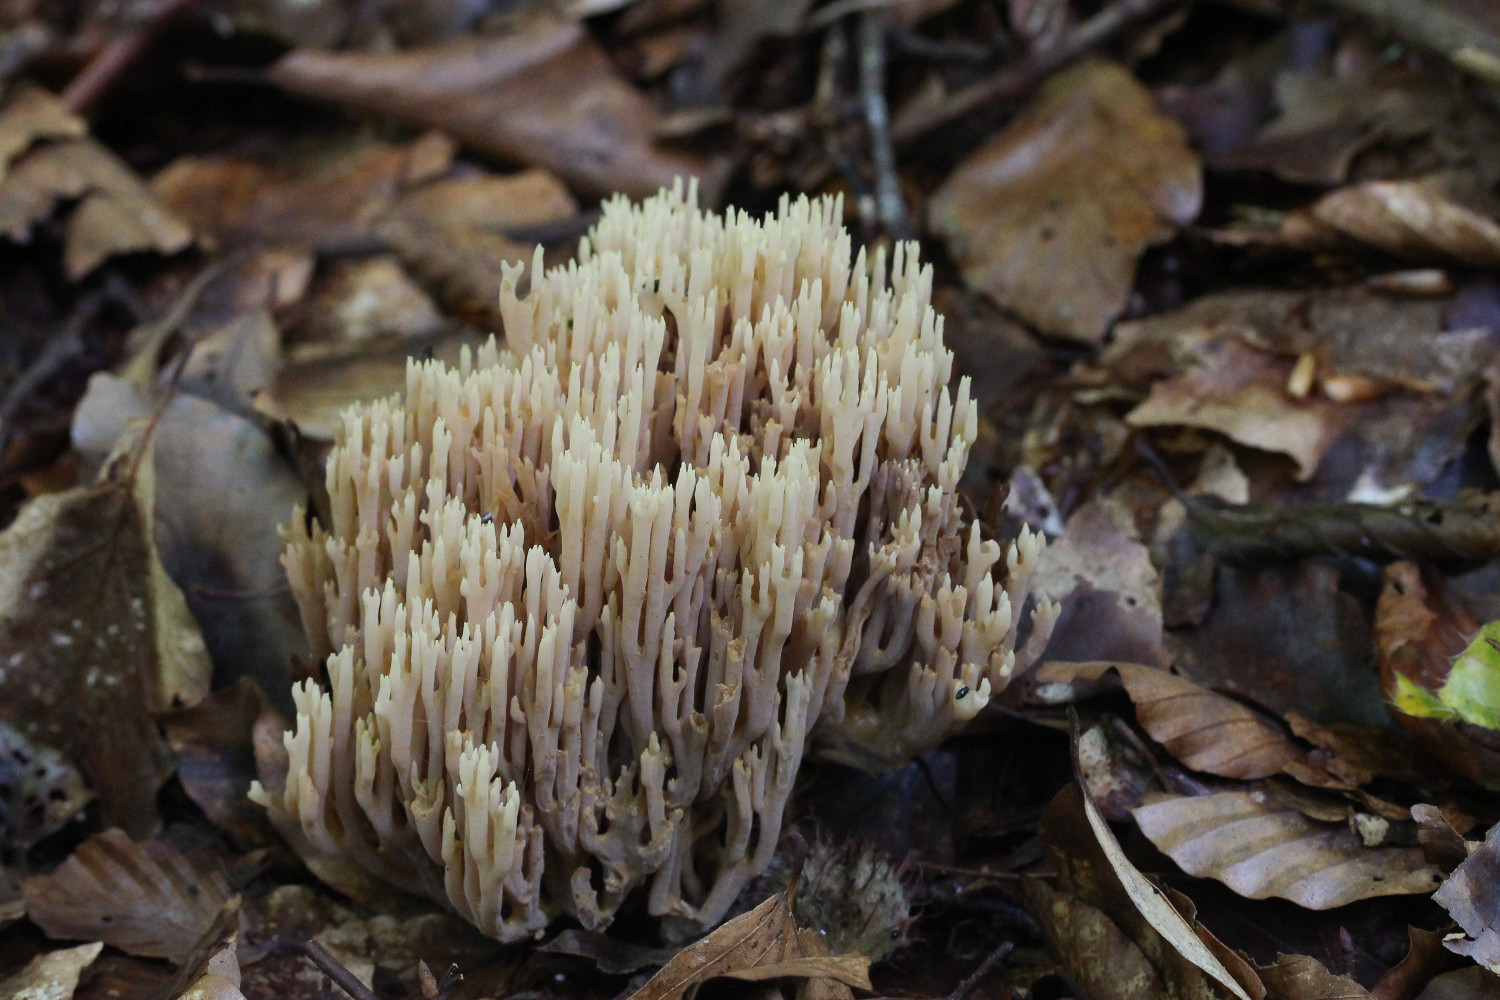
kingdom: Fungi
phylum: Basidiomycota
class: Agaricomycetes
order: Gomphales
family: Gomphaceae
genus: Ramaria
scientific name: Ramaria stricta
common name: rank koralsvamp
